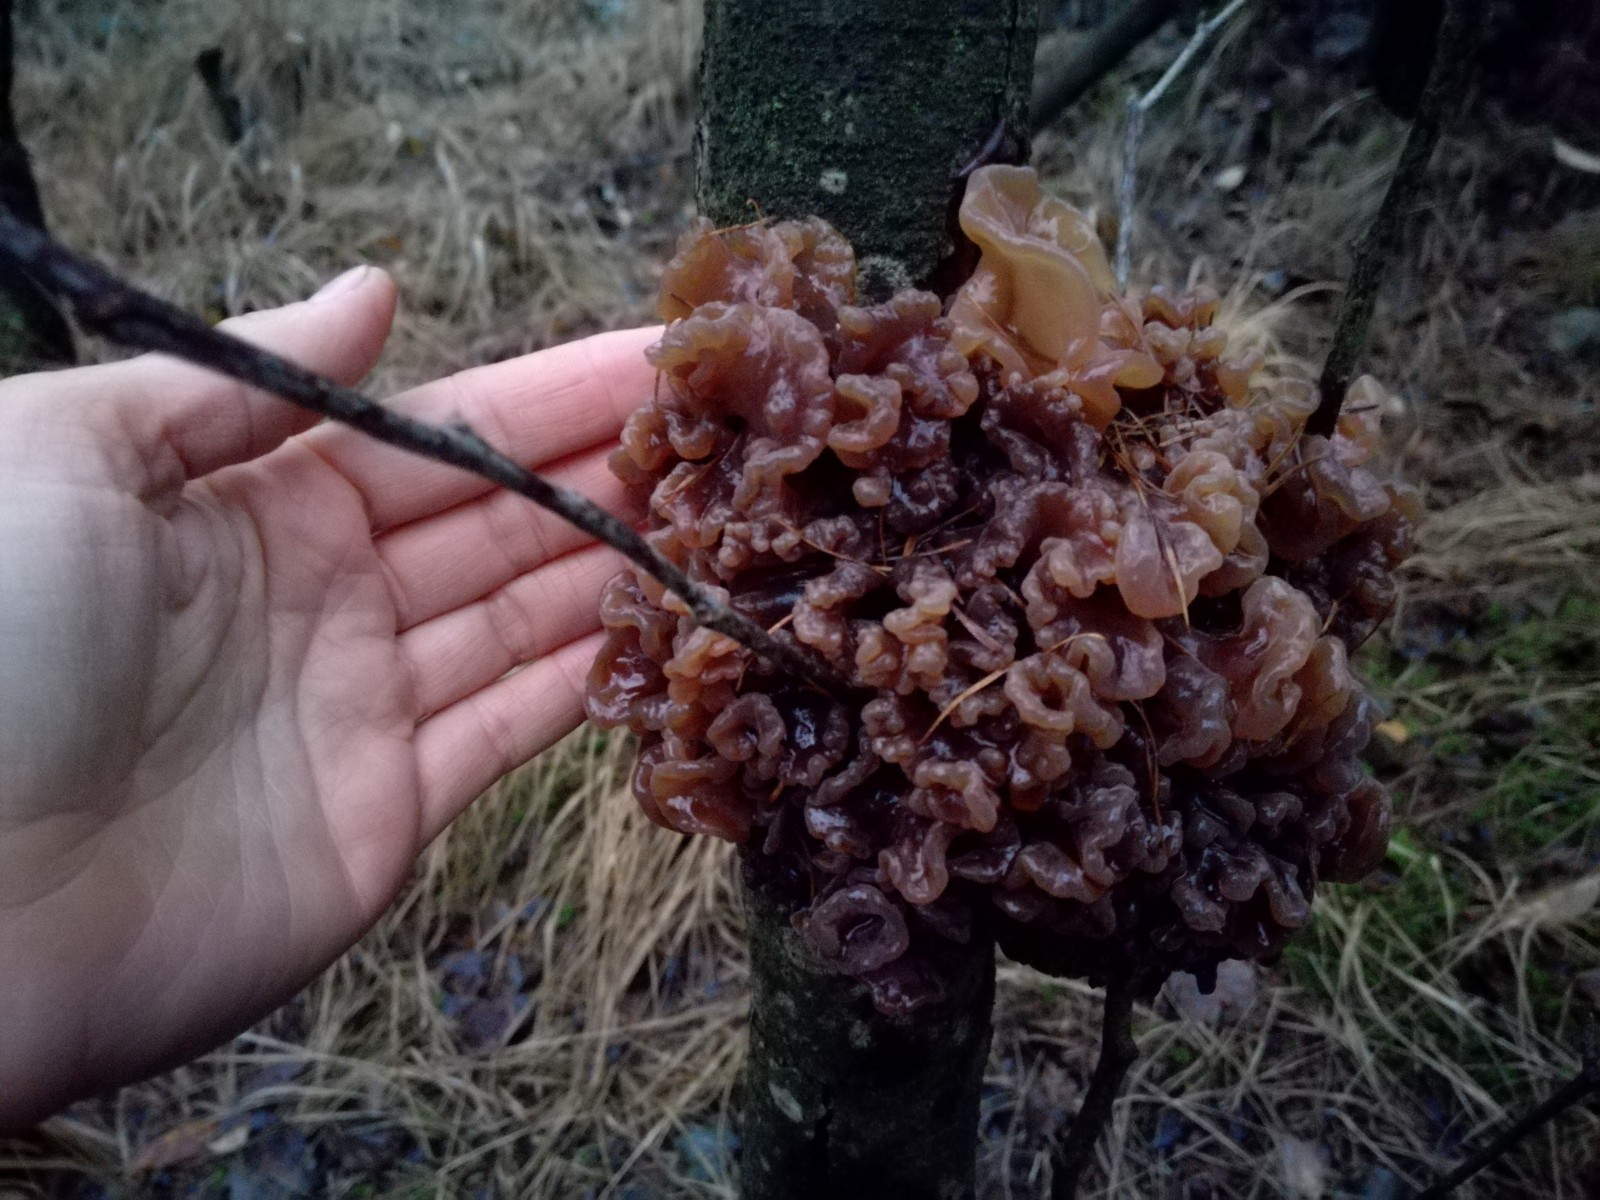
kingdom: Fungi
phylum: Basidiomycota
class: Tremellomycetes
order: Tremellales
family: Tremellaceae
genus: Phaeotremella
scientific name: Phaeotremella frondosa
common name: kæmpe-bævresvamp
